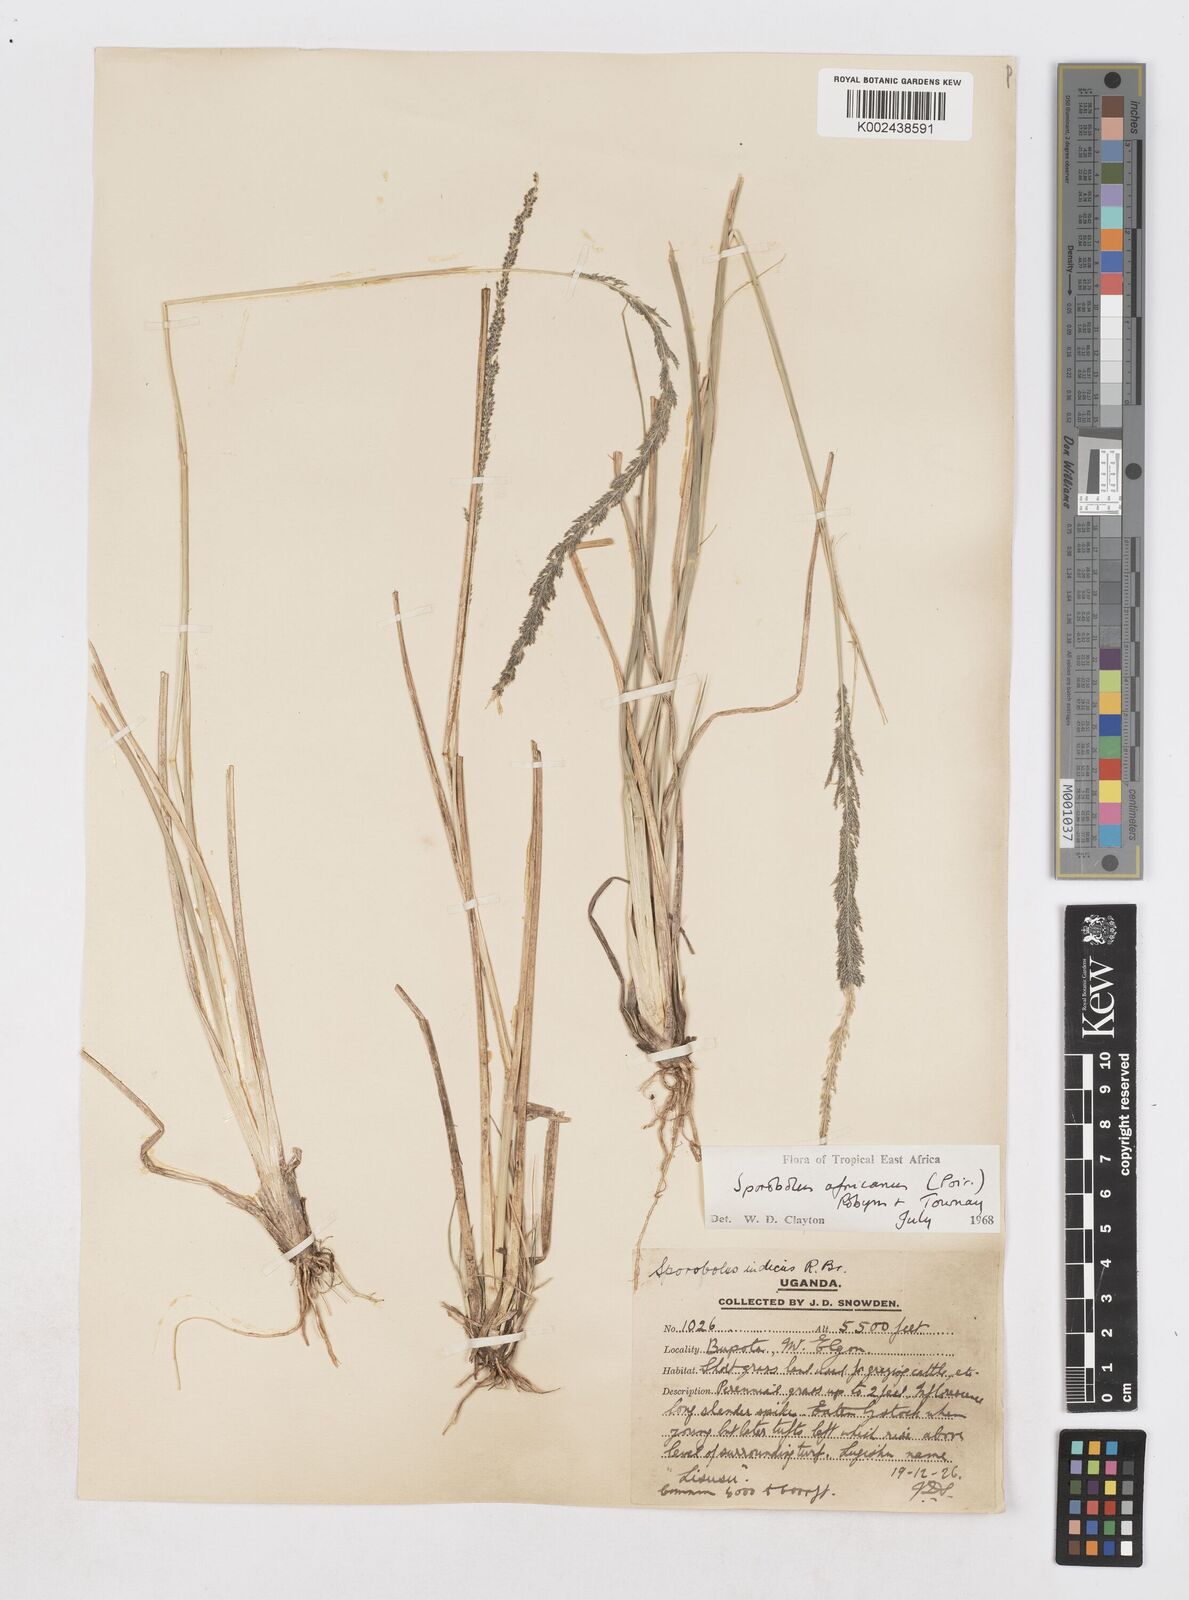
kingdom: Plantae
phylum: Tracheophyta
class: Liliopsida
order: Poales
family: Poaceae
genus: Sporobolus
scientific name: Sporobolus africanus
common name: African dropseed
